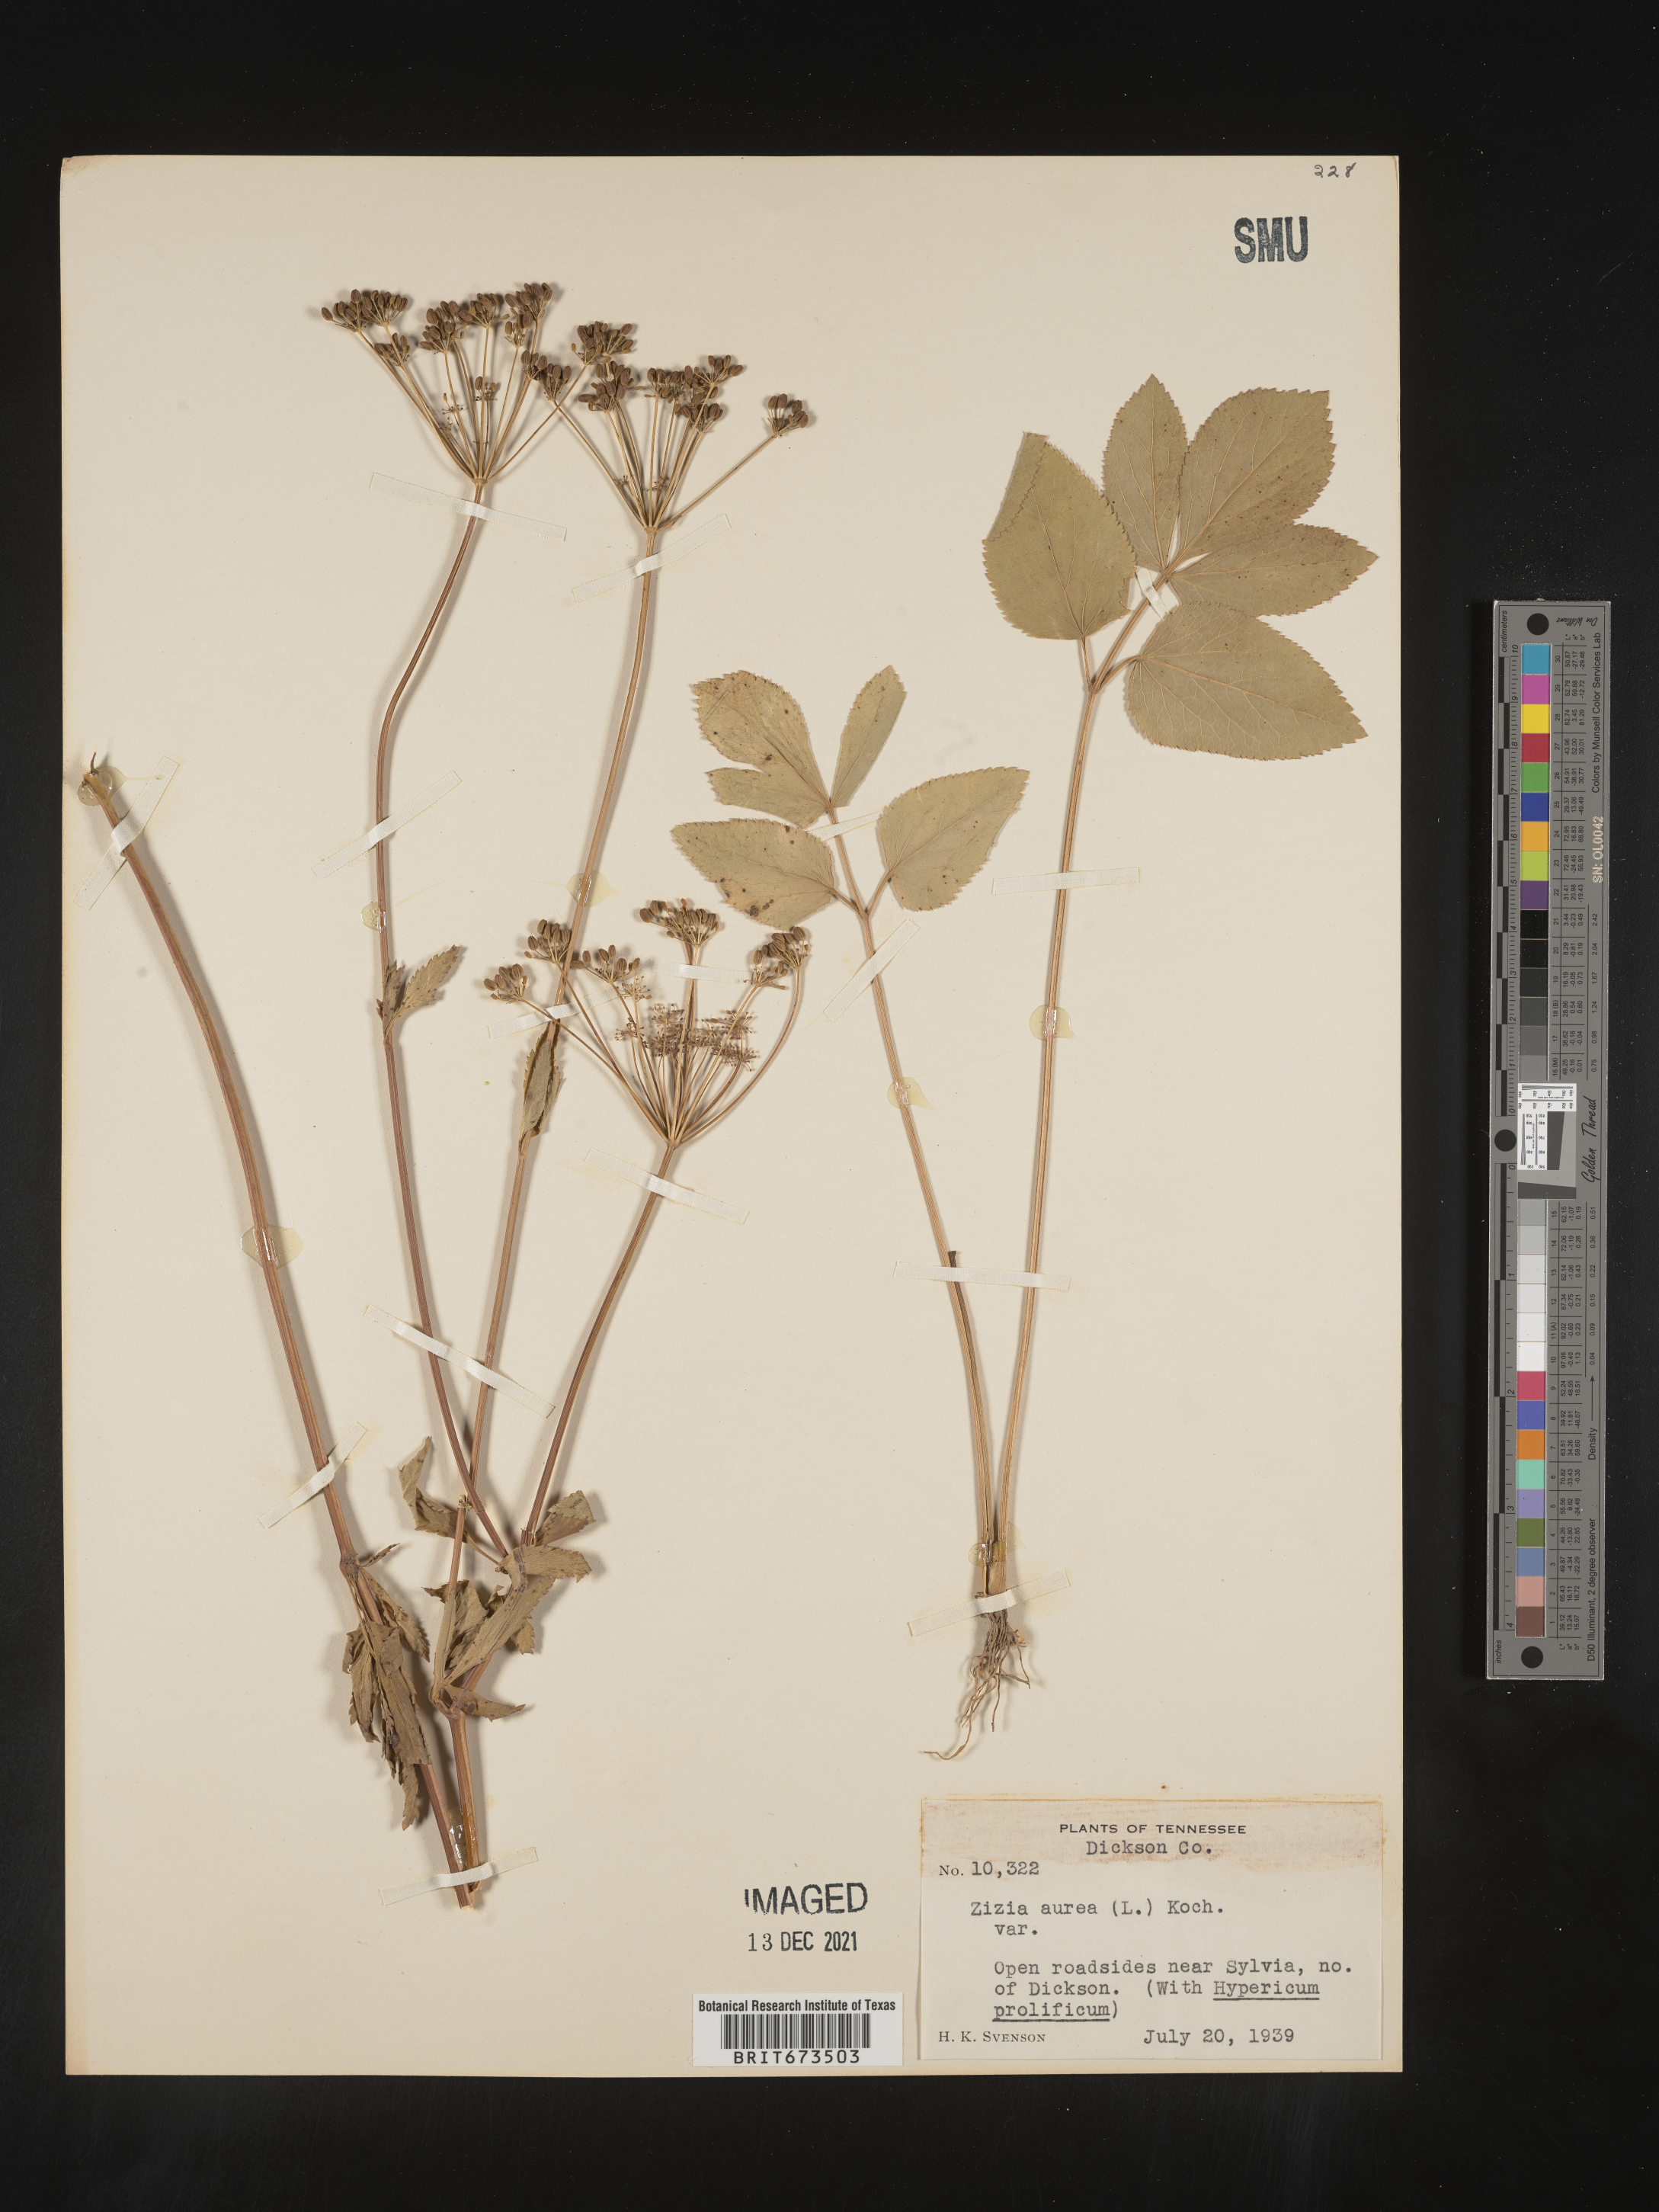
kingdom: Plantae
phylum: Tracheophyta
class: Magnoliopsida
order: Apiales
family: Apiaceae
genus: Zizia
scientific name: Zizia aurea
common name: Golden alexanders
